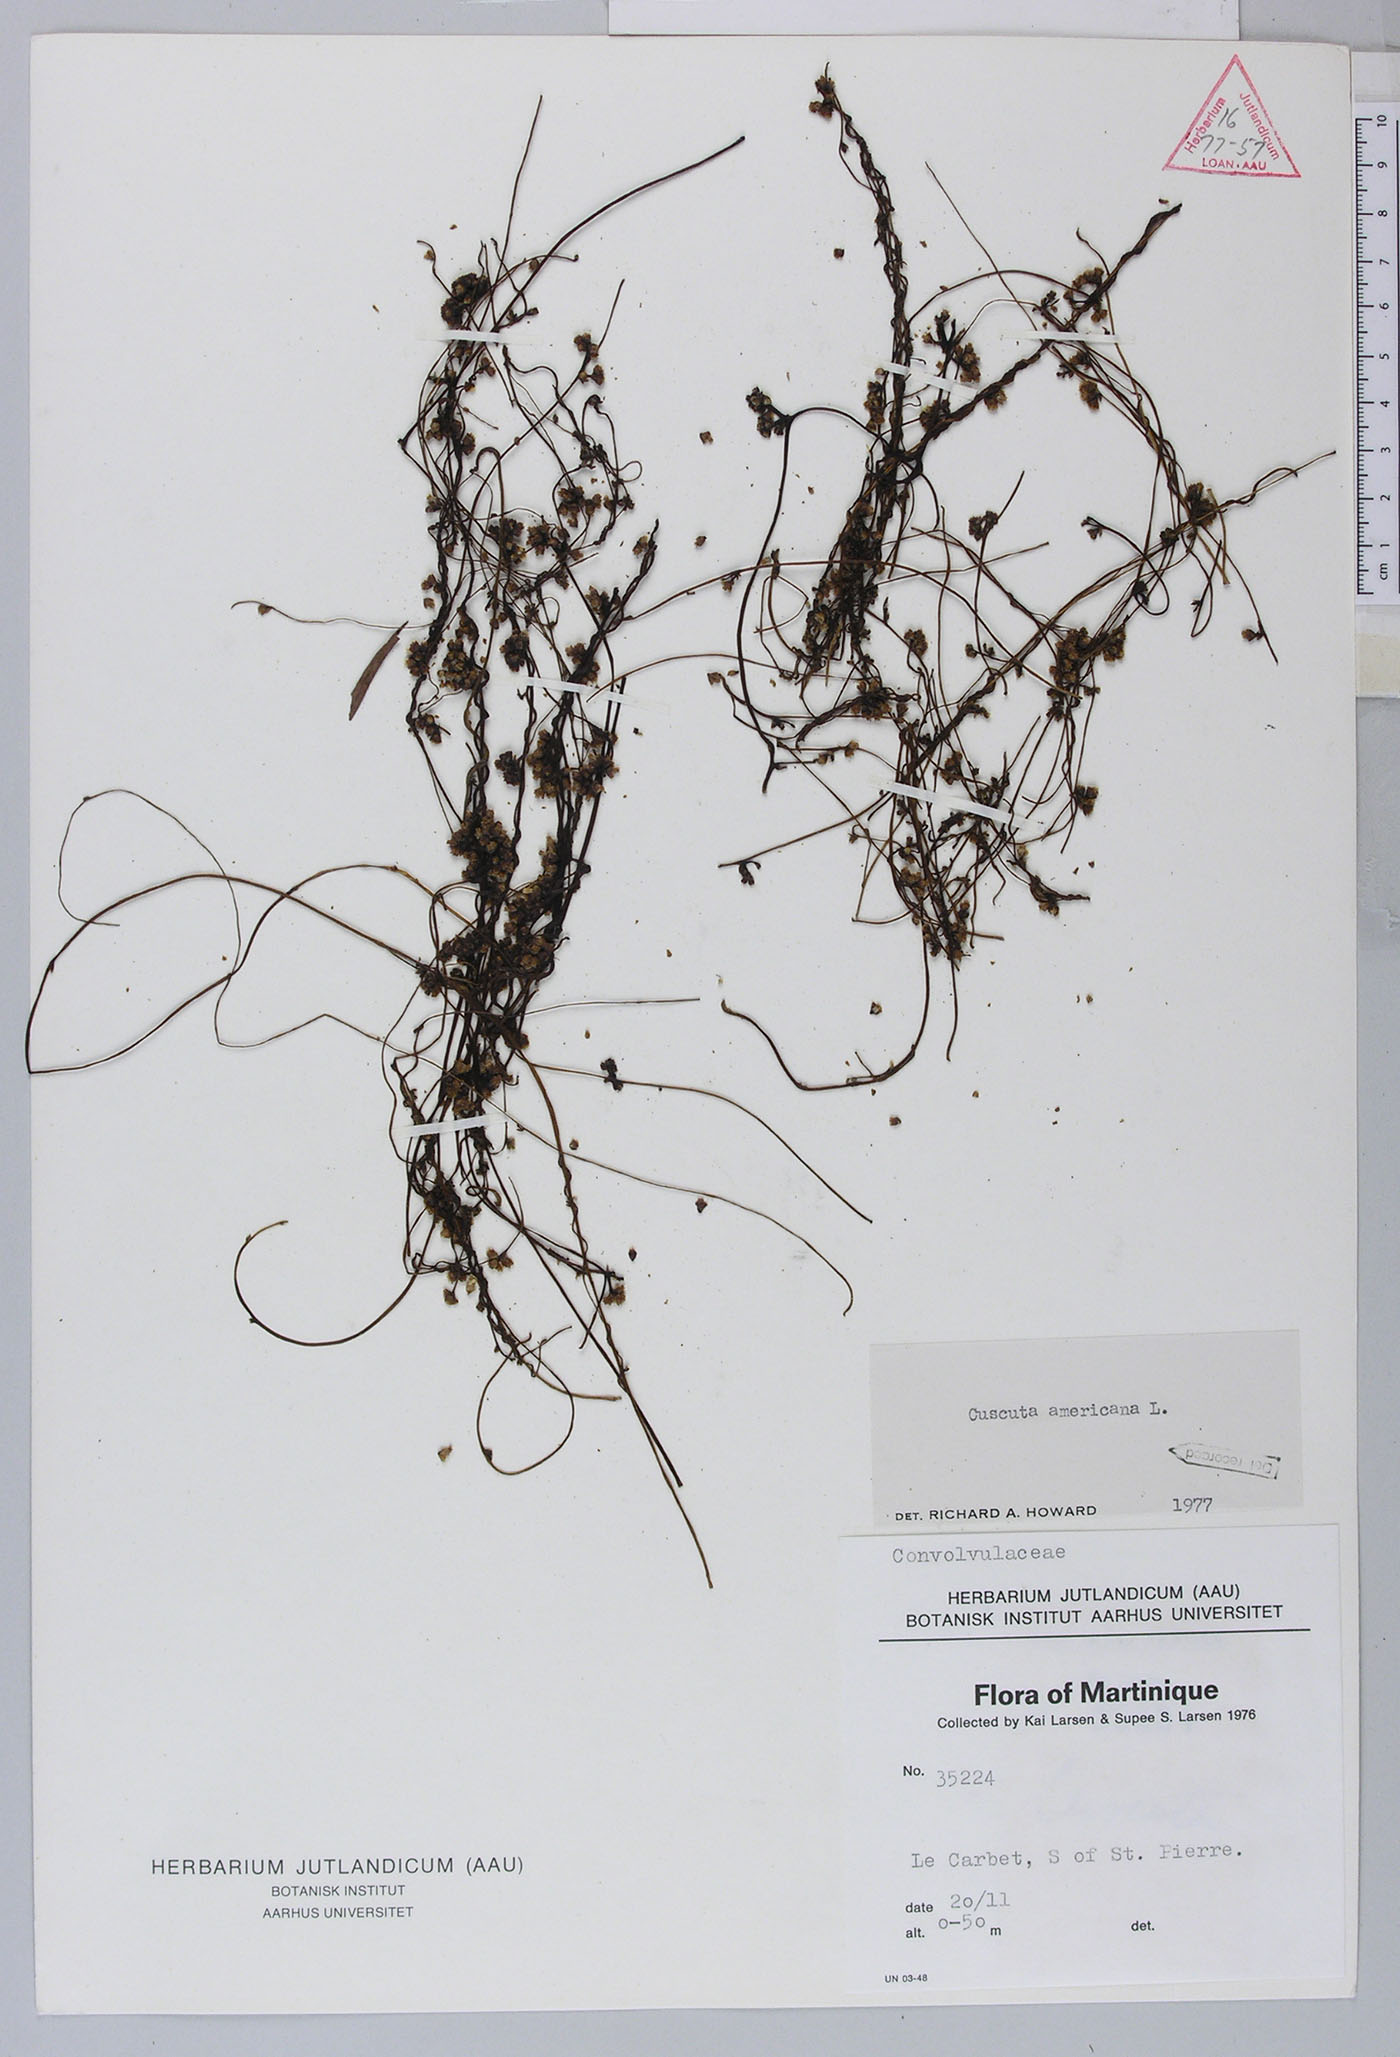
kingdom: Plantae
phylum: Tracheophyta
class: Magnoliopsida
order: Solanales
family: Convolvulaceae
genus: Cuscuta
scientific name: Cuscuta americana
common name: American dodder
